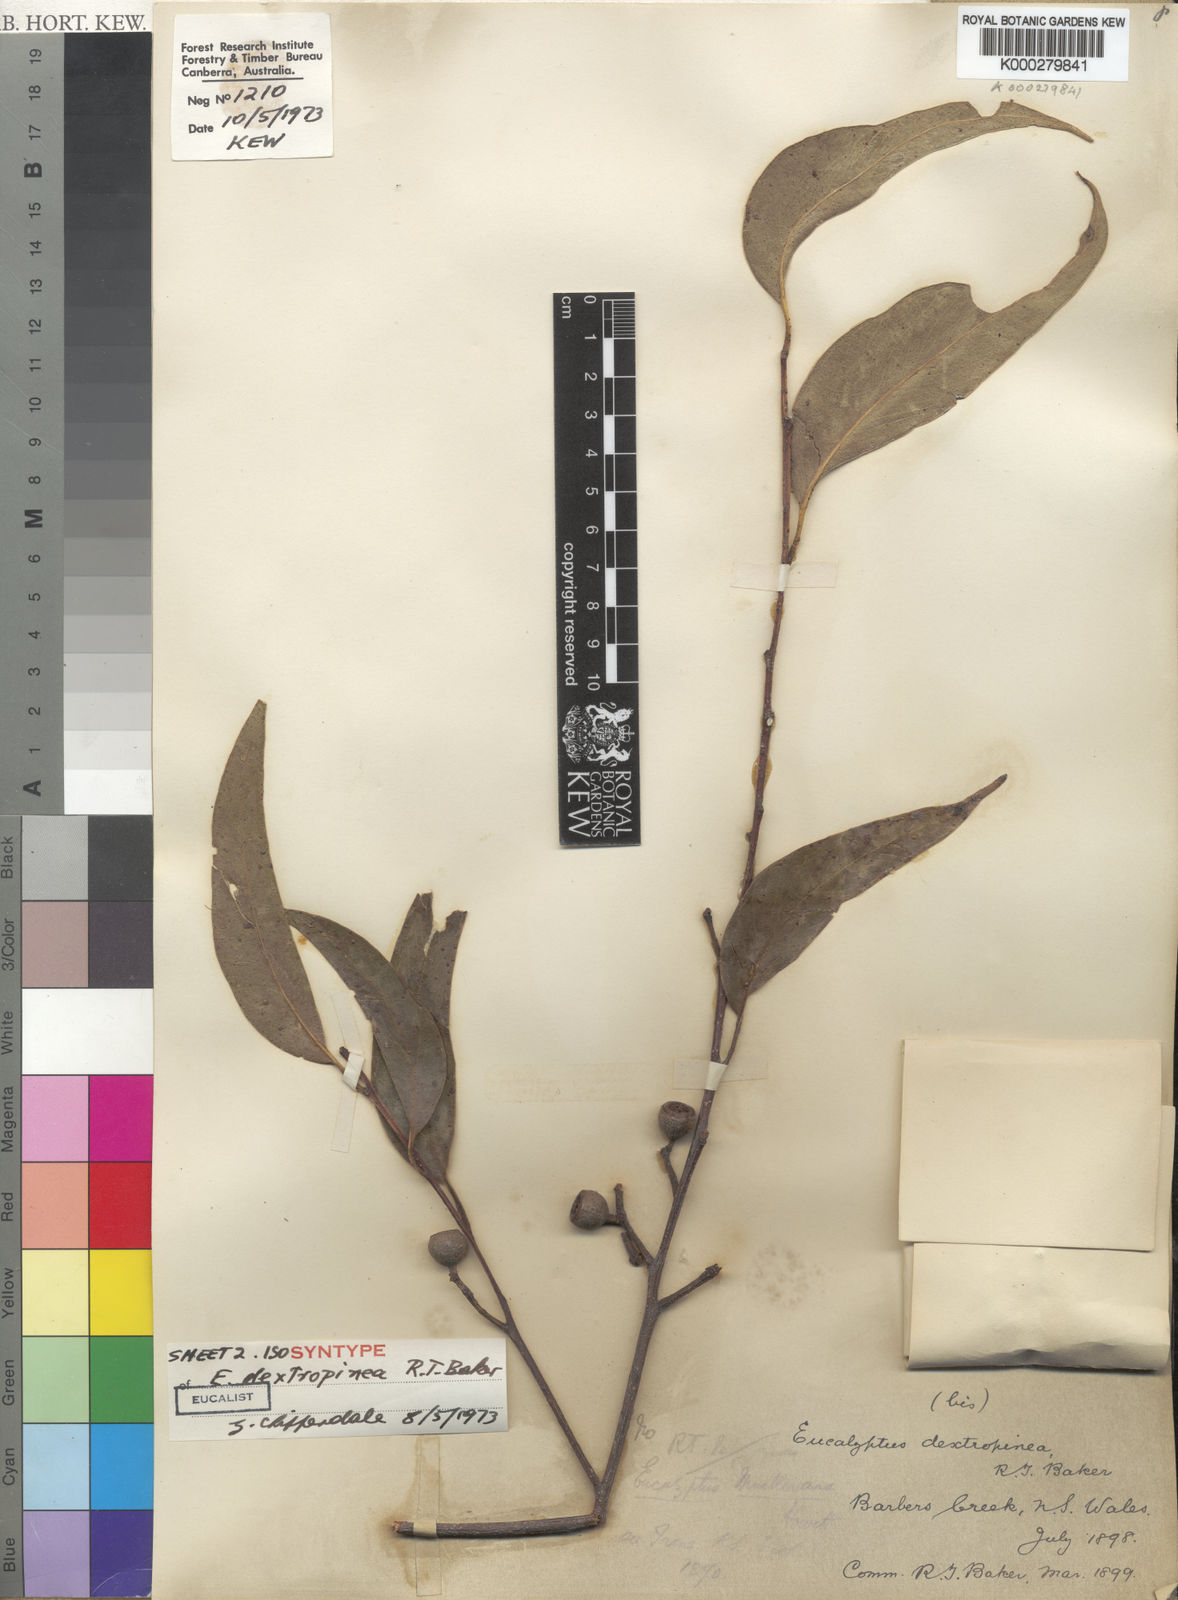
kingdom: Plantae
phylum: Tracheophyta
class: Magnoliopsida
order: Myrtales
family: Myrtaceae
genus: Eucalyptus
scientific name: Eucalyptus muelleriana
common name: Yellow-stringybark
